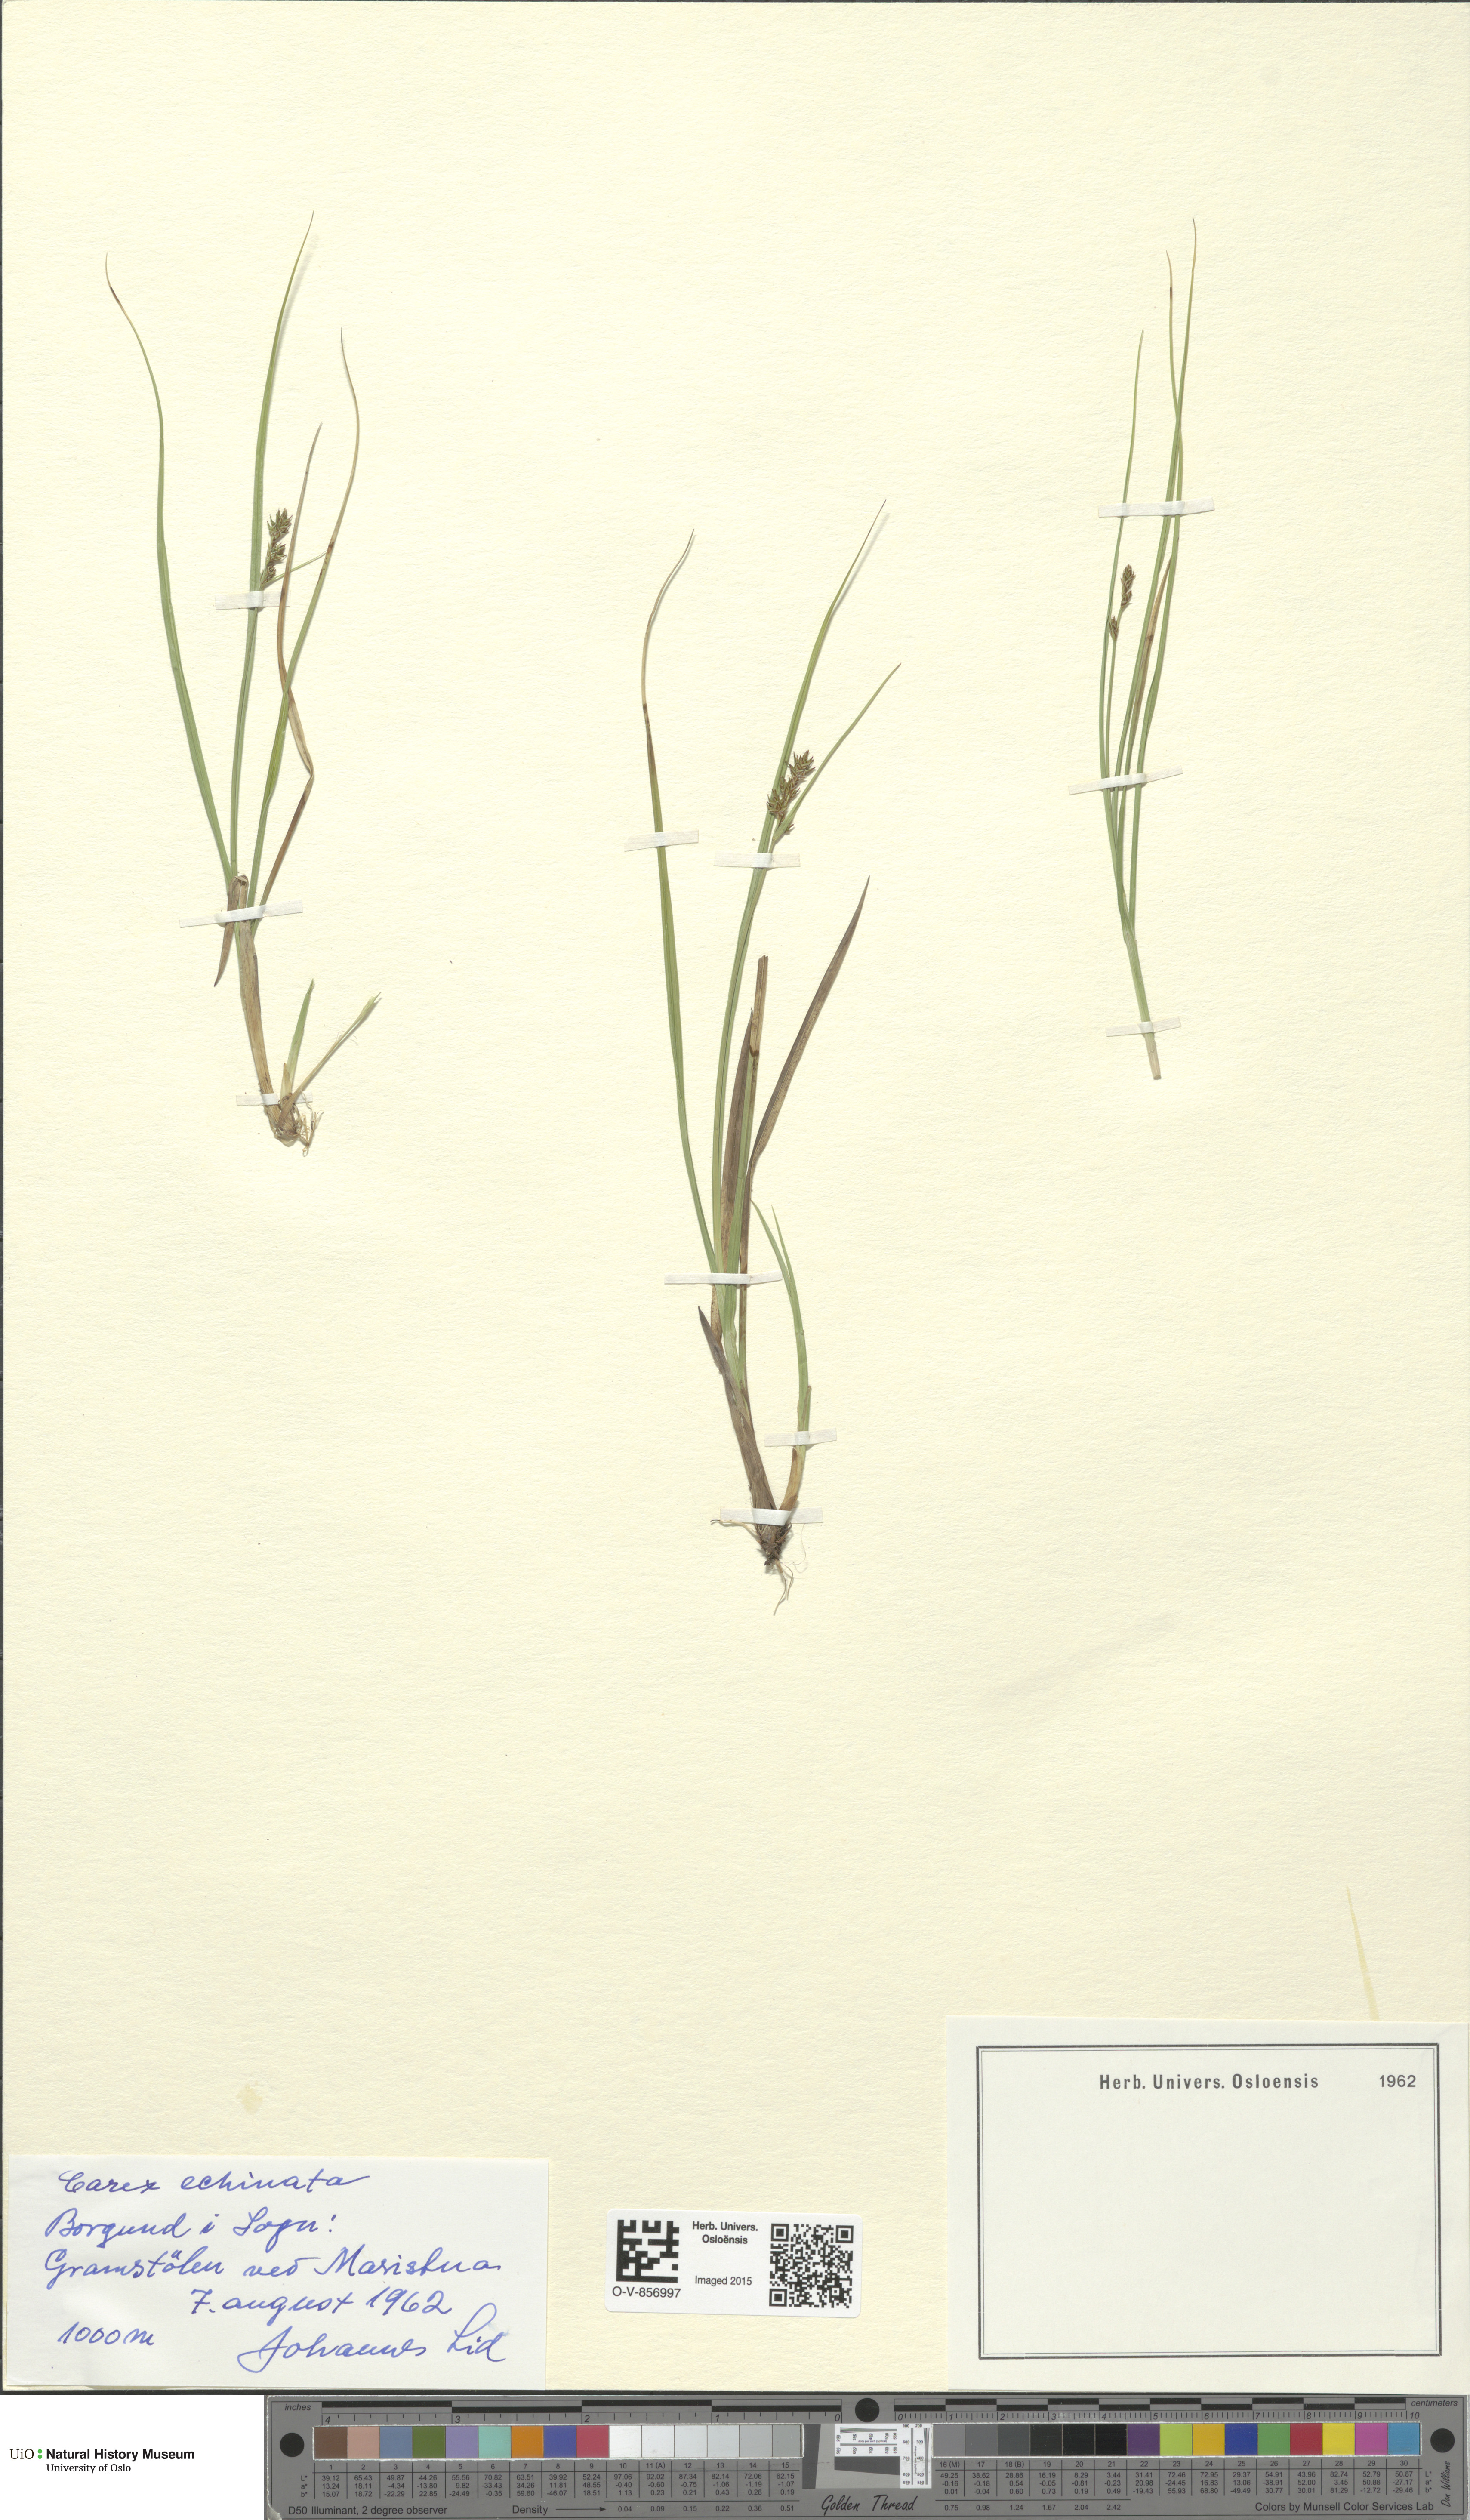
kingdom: Plantae
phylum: Tracheophyta
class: Liliopsida
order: Poales
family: Cyperaceae
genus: Carex
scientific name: Carex echinata
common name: Star sedge
